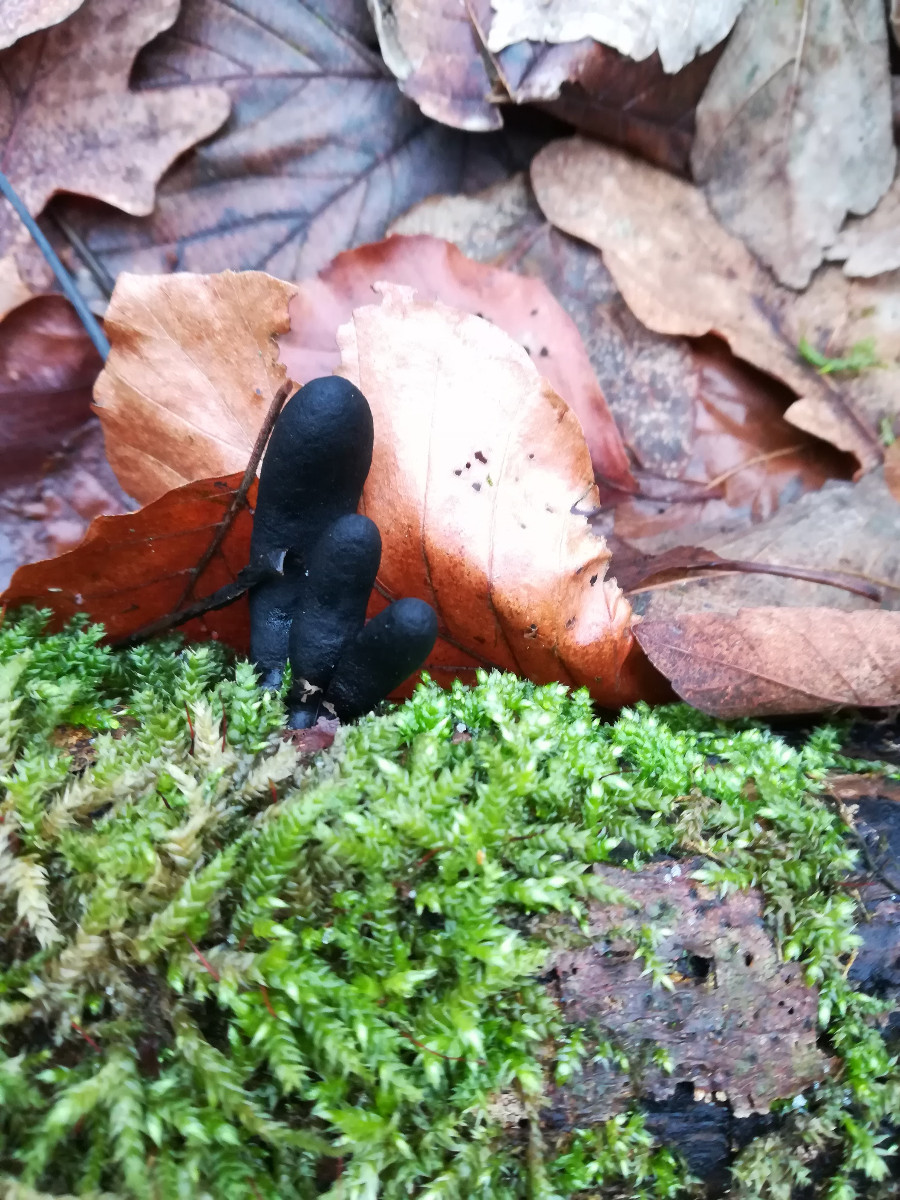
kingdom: Fungi
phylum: Ascomycota
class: Sordariomycetes
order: Xylariales
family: Xylariaceae
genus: Xylaria
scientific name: Xylaria polymorpha
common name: kølle-stødsvamp
